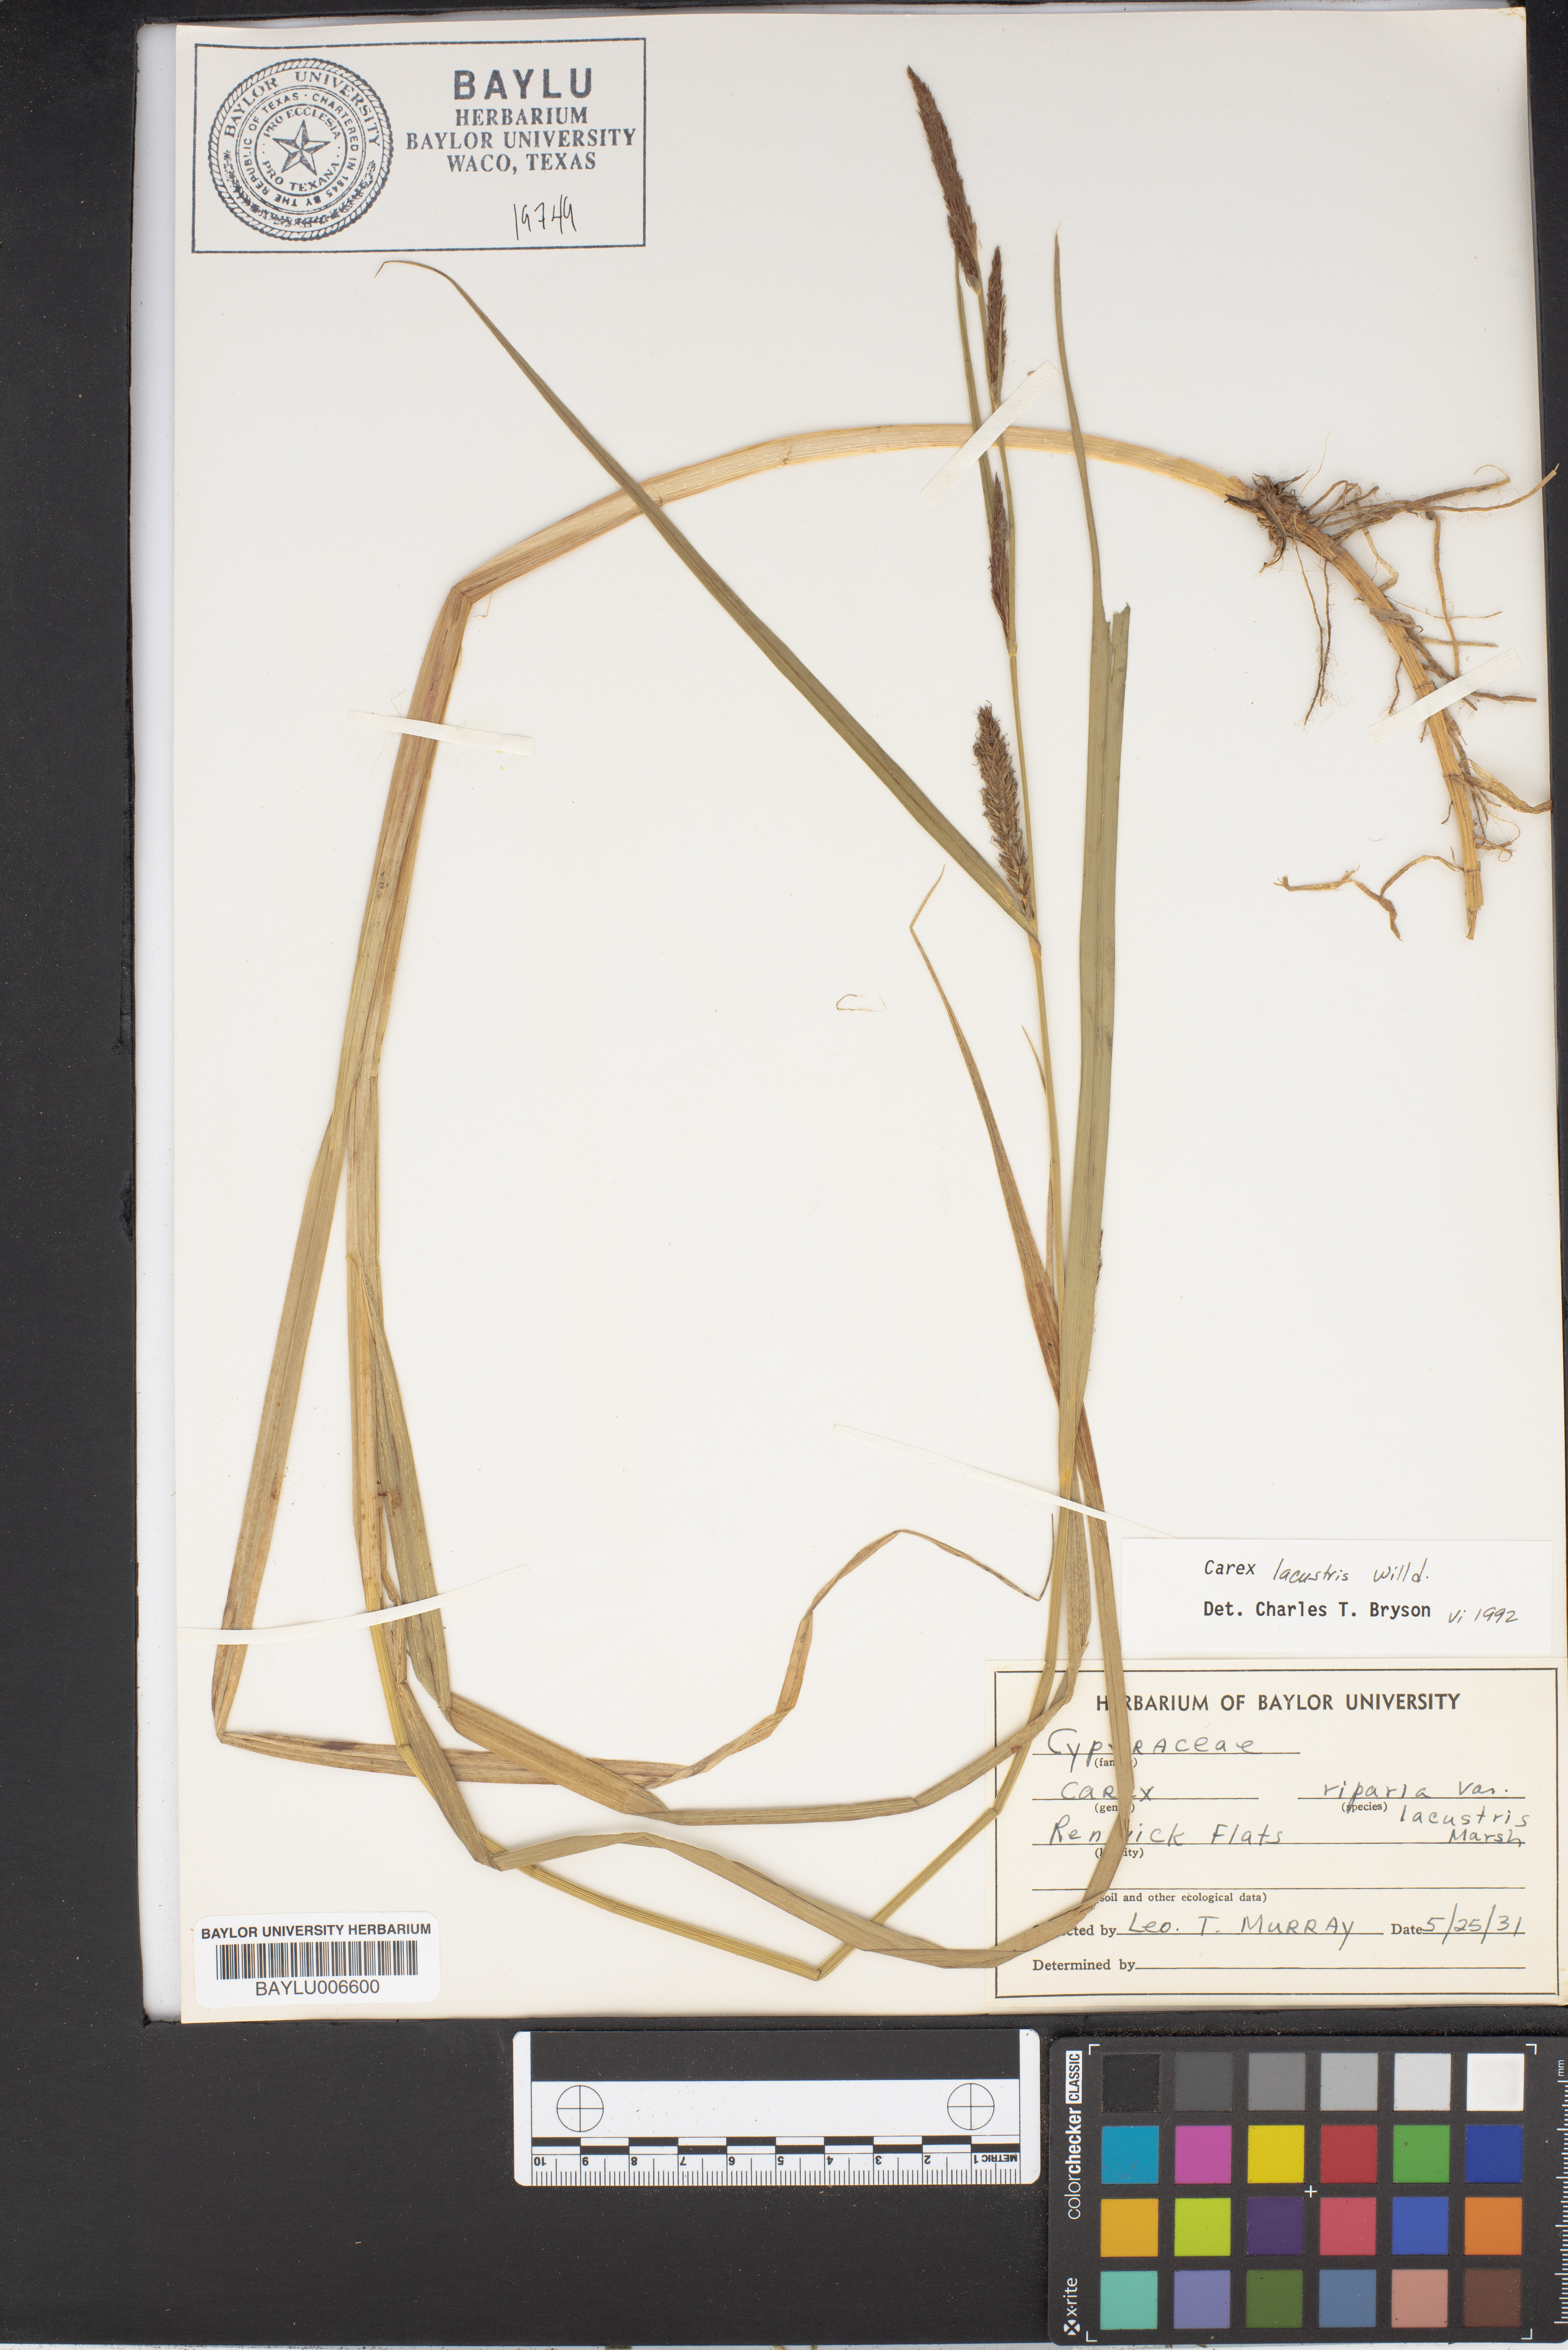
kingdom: Plantae
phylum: Tracheophyta
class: Liliopsida
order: Poales
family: Cyperaceae
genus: Carex
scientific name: Carex lacustris
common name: Common lake sedge
